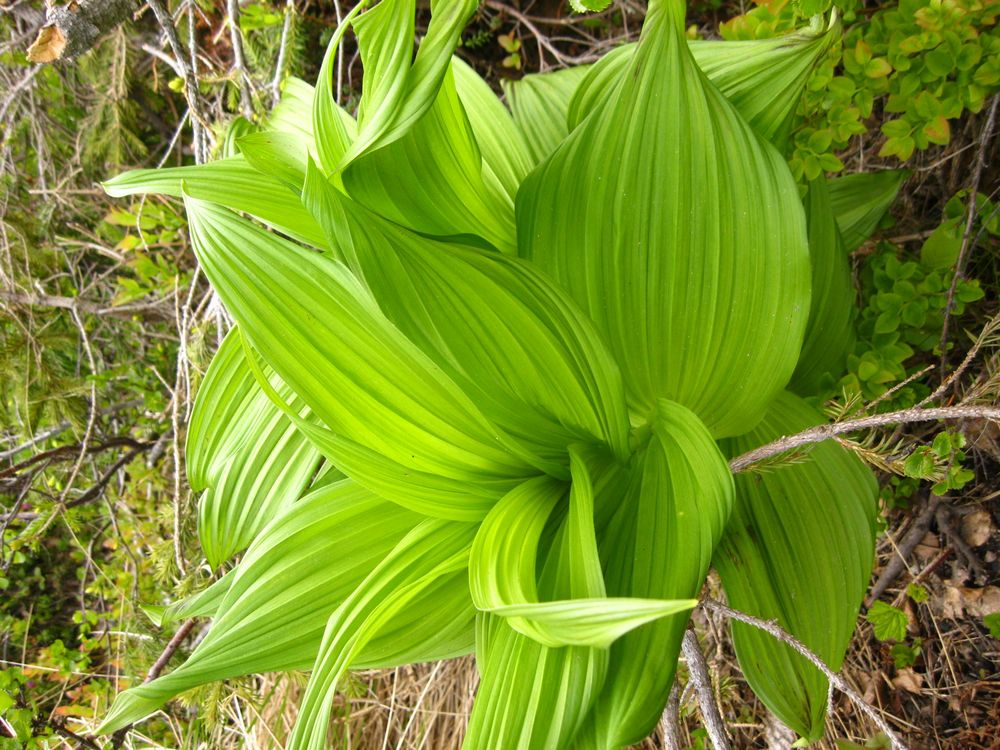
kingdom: Plantae
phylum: Tracheophyta
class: Liliopsida
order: Liliales
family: Liliaceae
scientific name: Liliaceae
